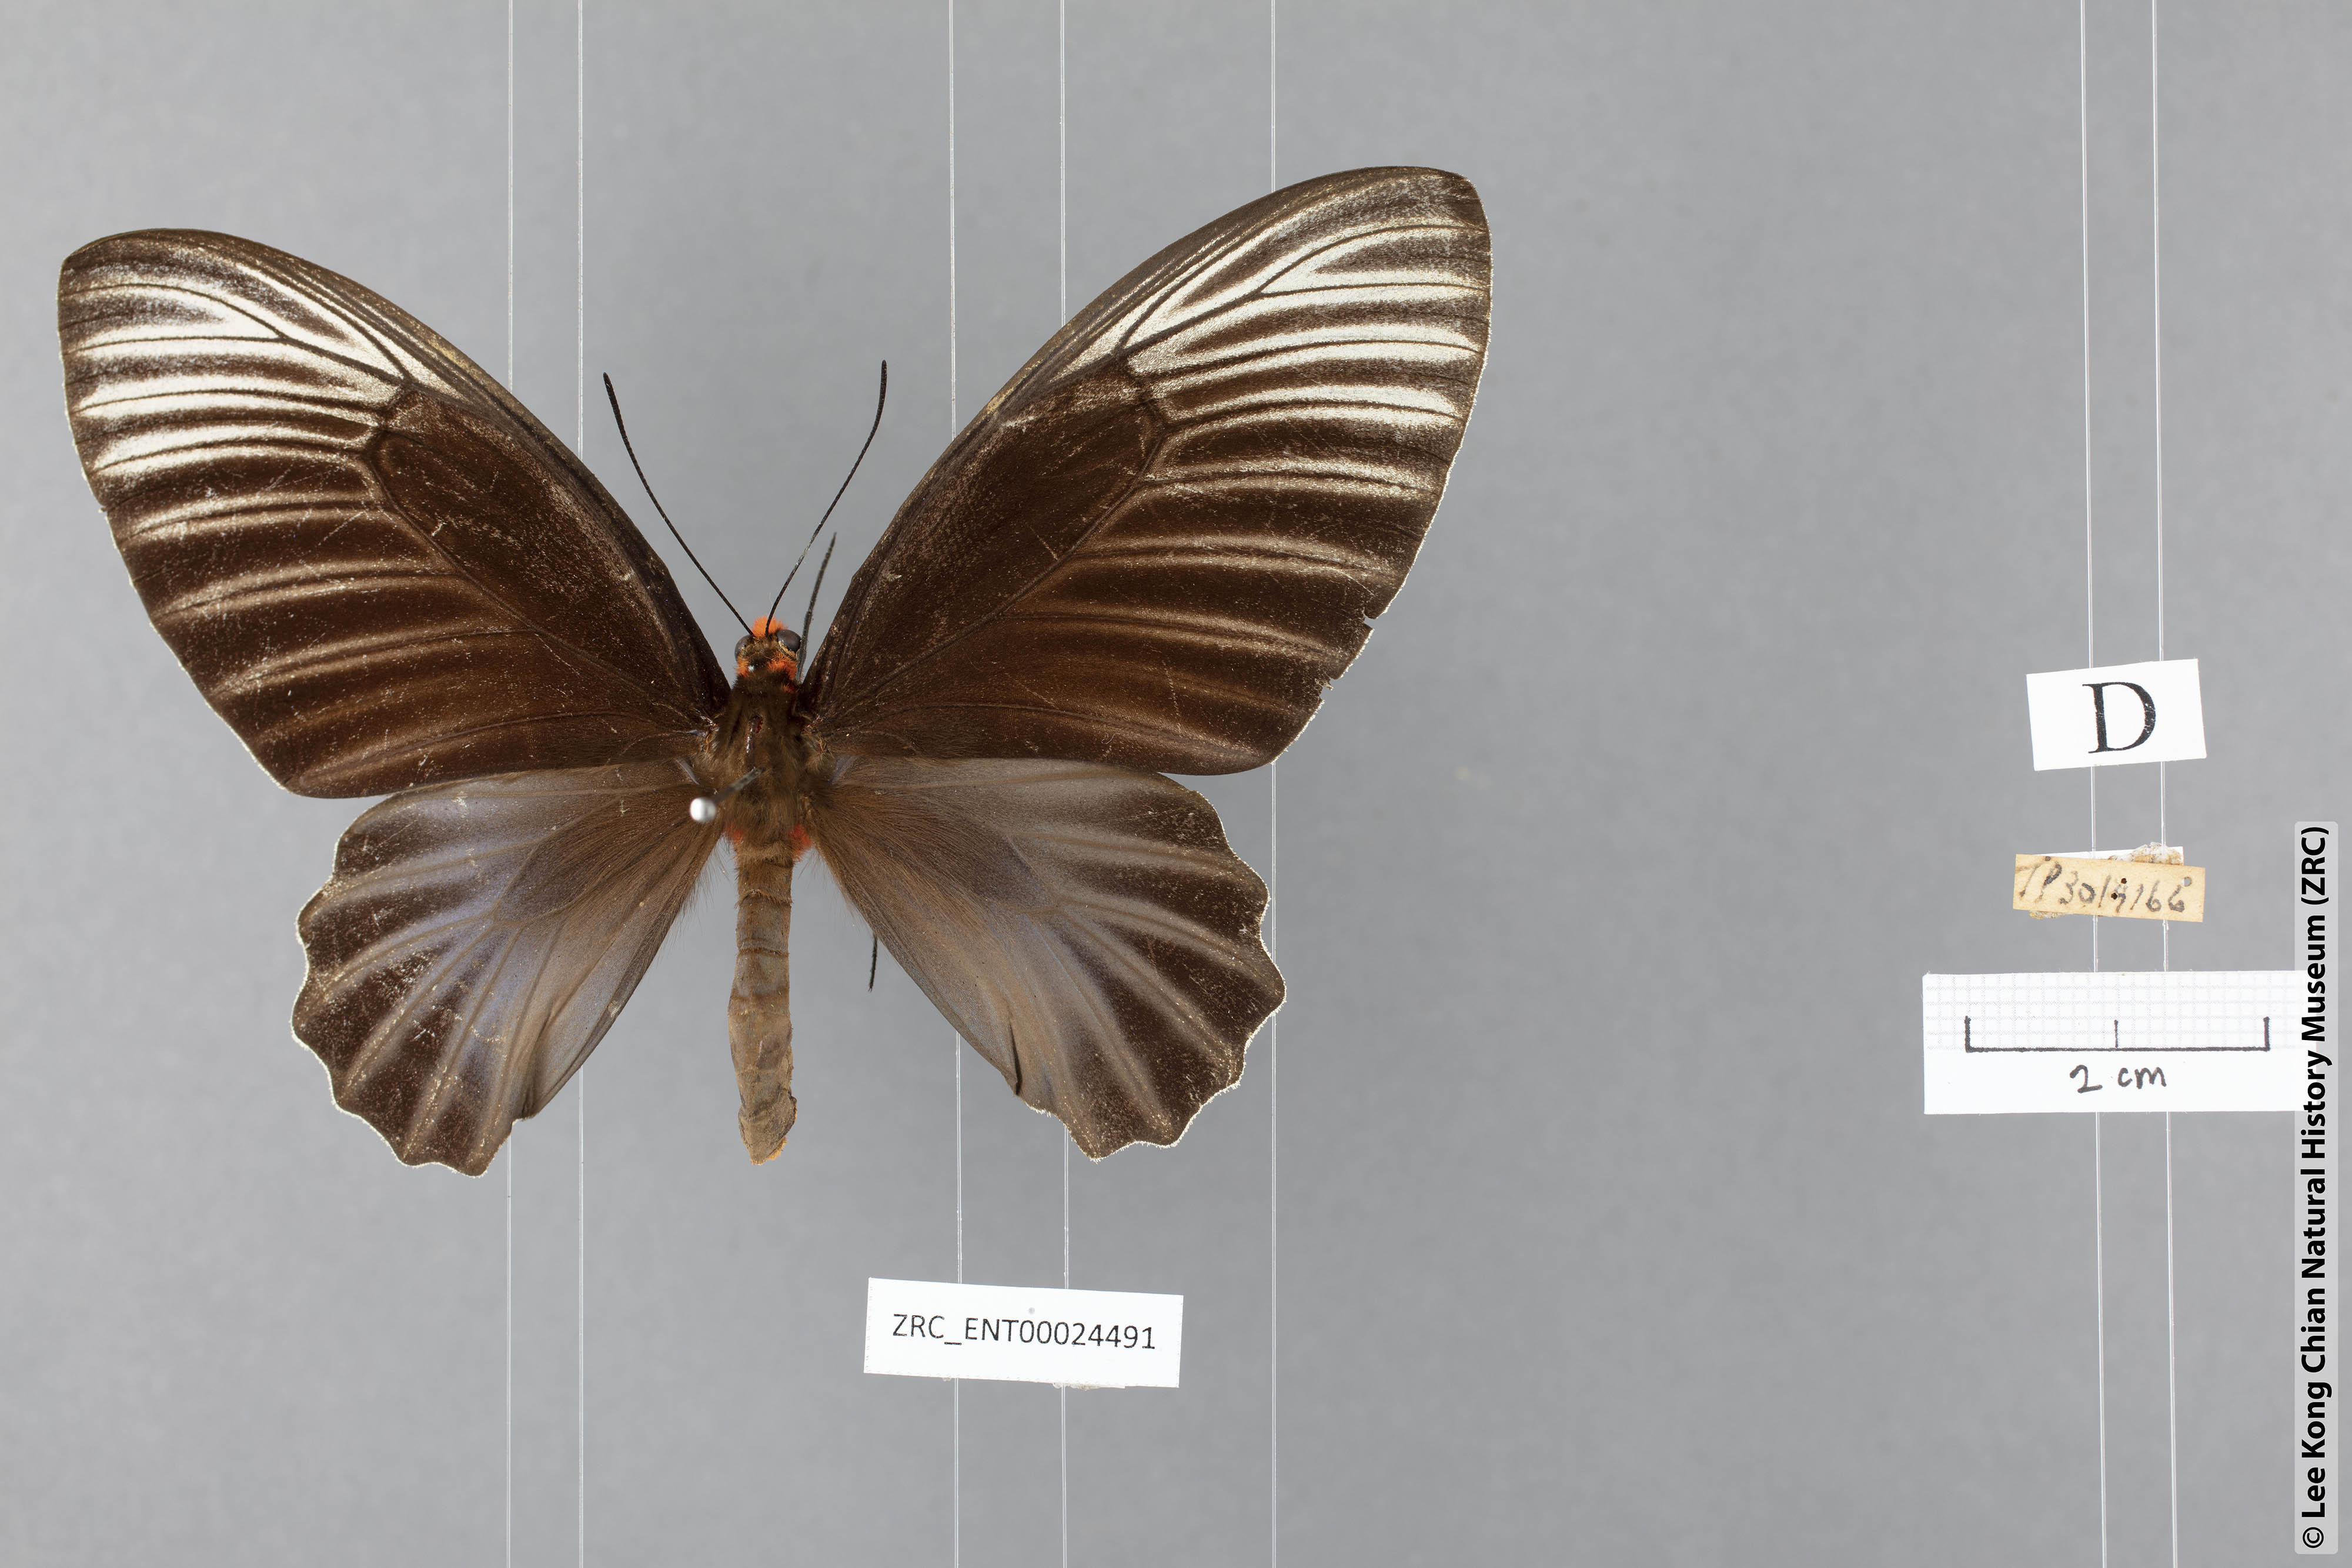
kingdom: Animalia
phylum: Arthropoda
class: Insecta
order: Lepidoptera
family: Papilionidae
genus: Atrophaneura
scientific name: Atrophaneura nox
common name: Malayan batwing
